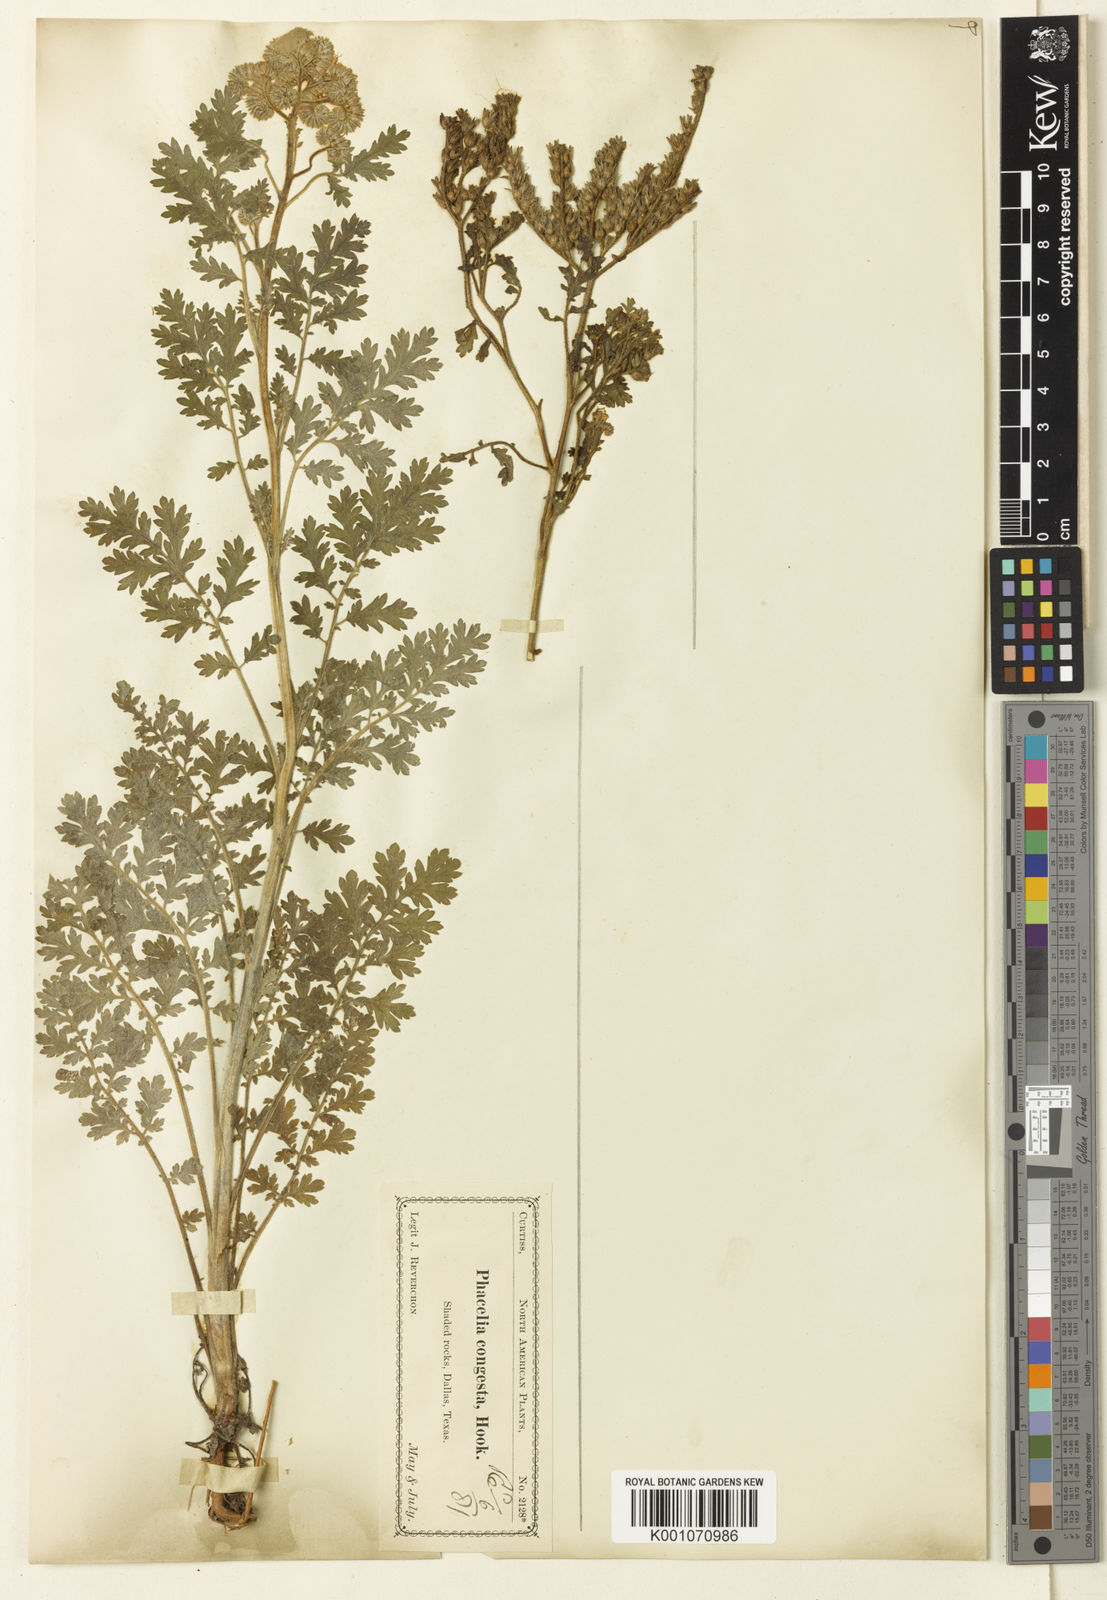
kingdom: Plantae
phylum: Tracheophyta
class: Magnoliopsida
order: Boraginales
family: Hydrophyllaceae
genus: Phacelia
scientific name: Phacelia congesta
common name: Blue curls
